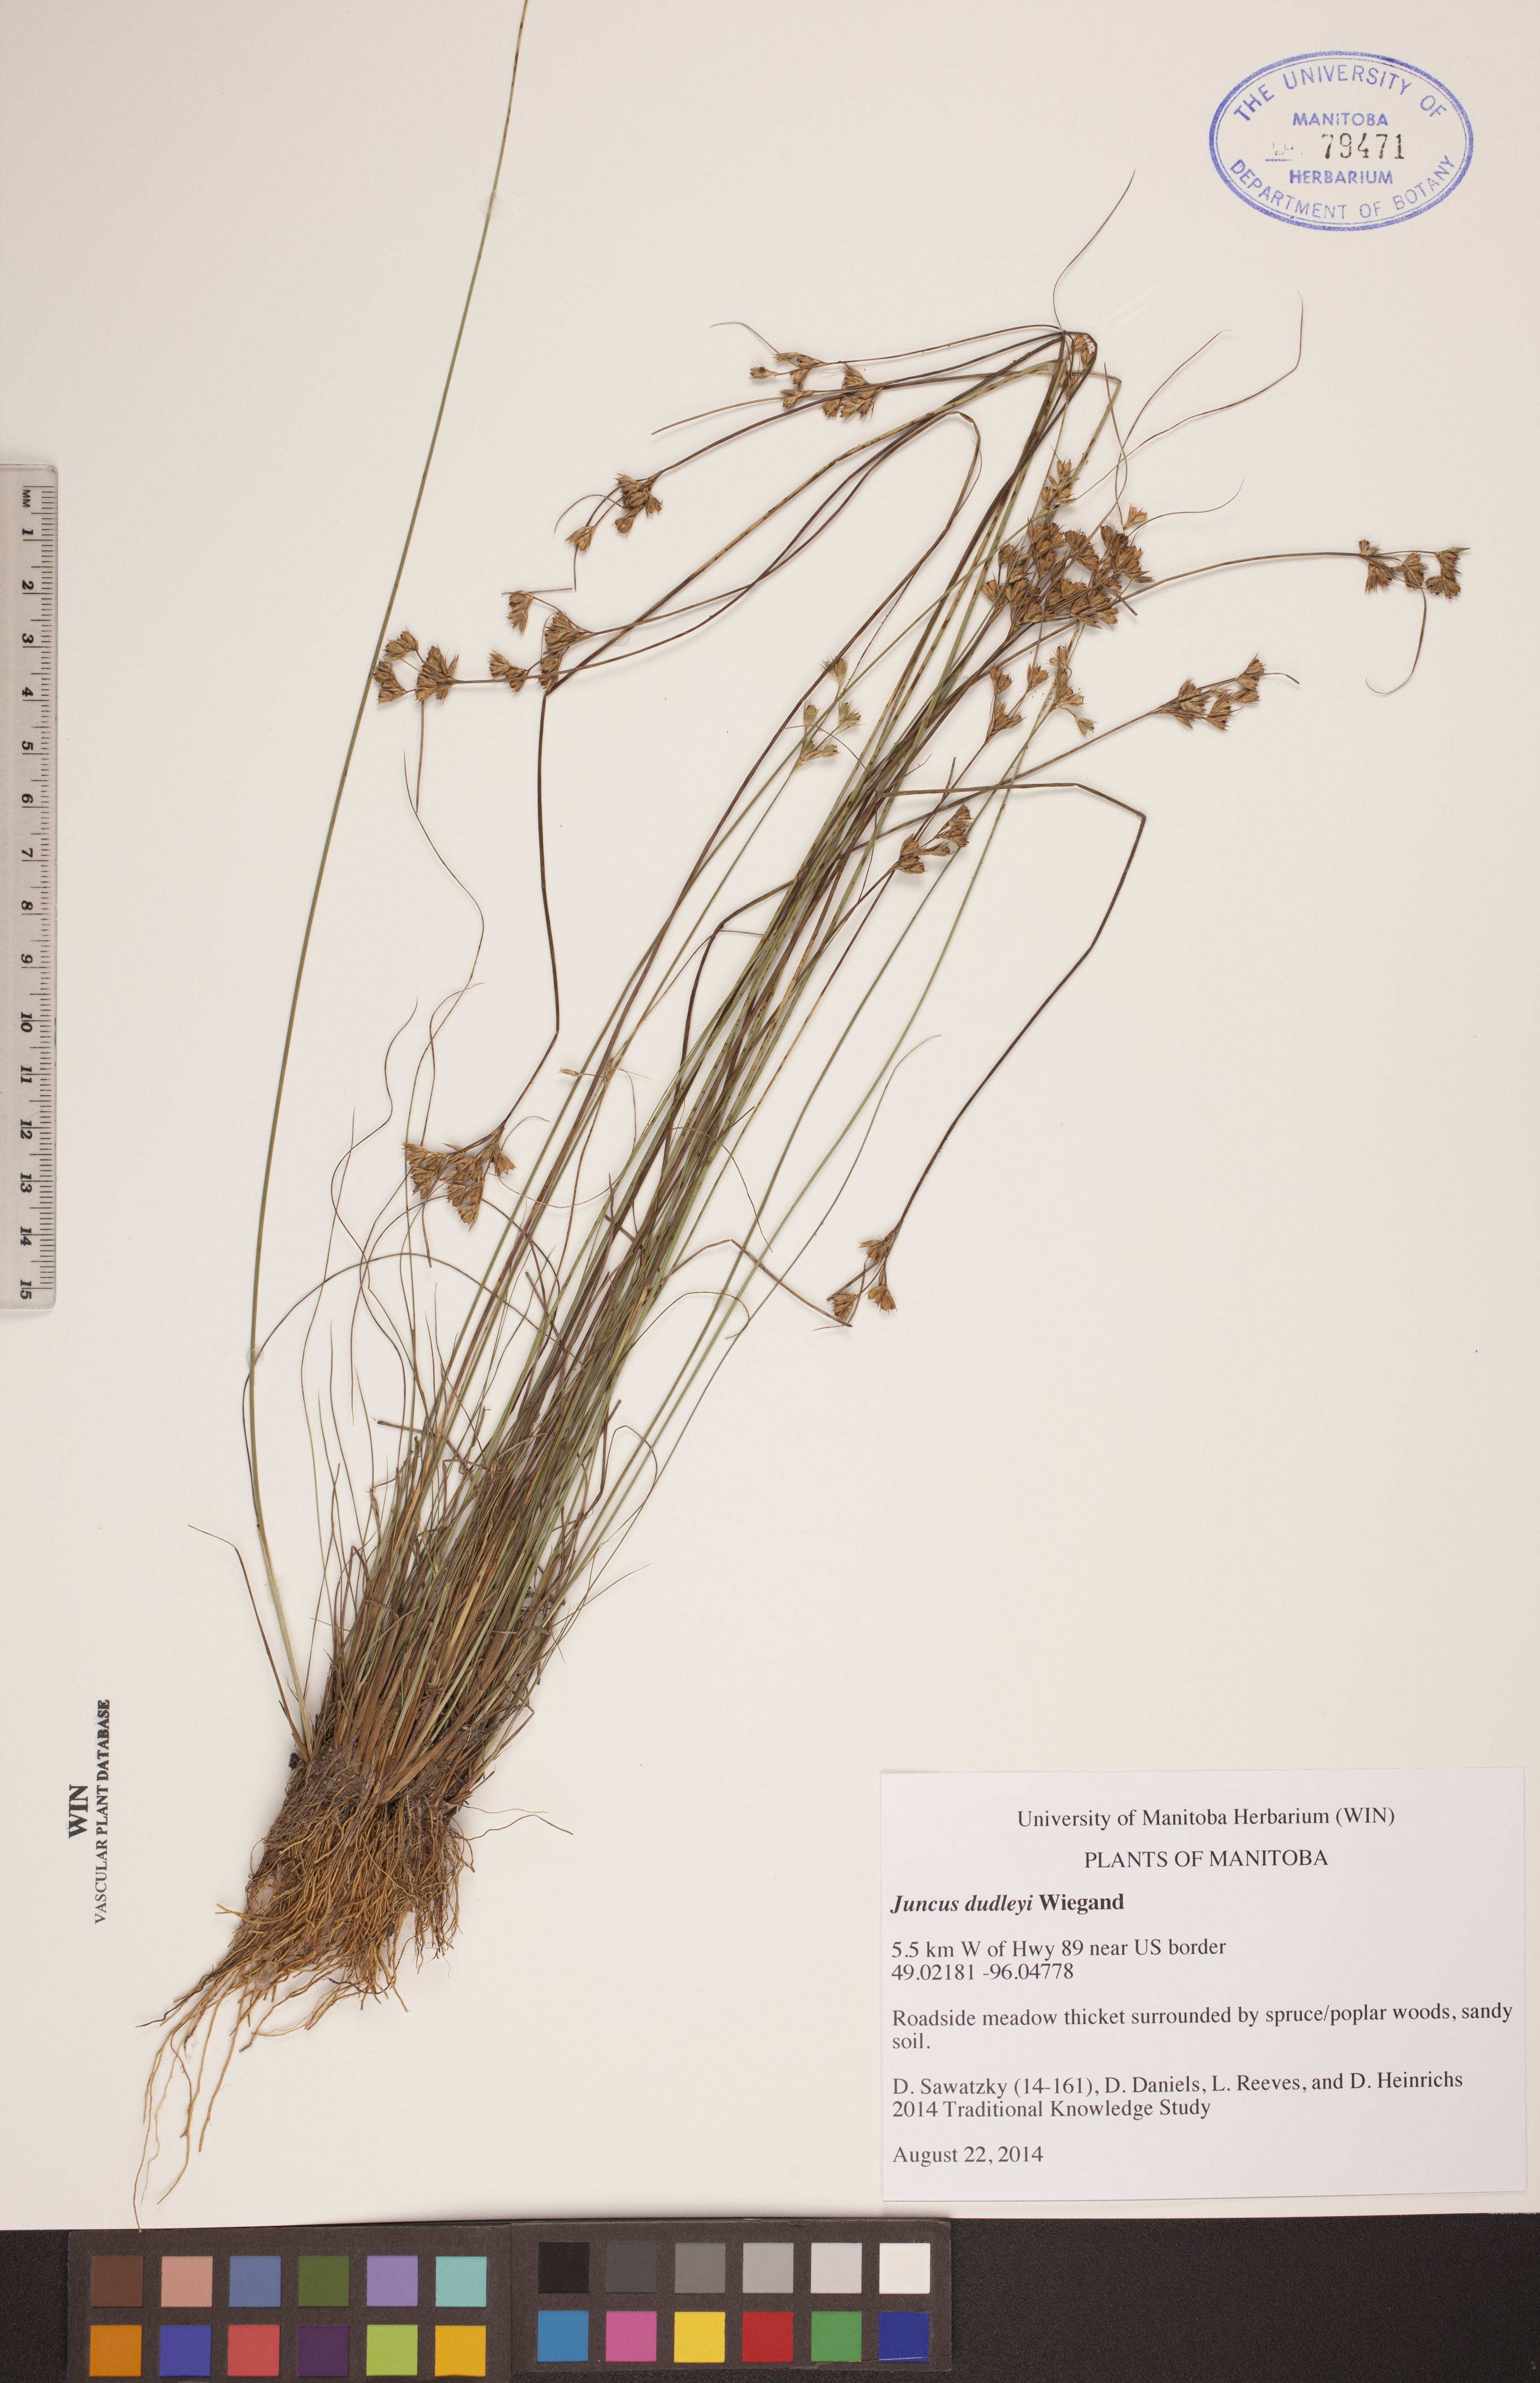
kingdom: Plantae
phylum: Tracheophyta
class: Liliopsida
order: Poales
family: Juncaceae
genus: Juncus
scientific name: Juncus dudleyi
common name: Dudley's rush
